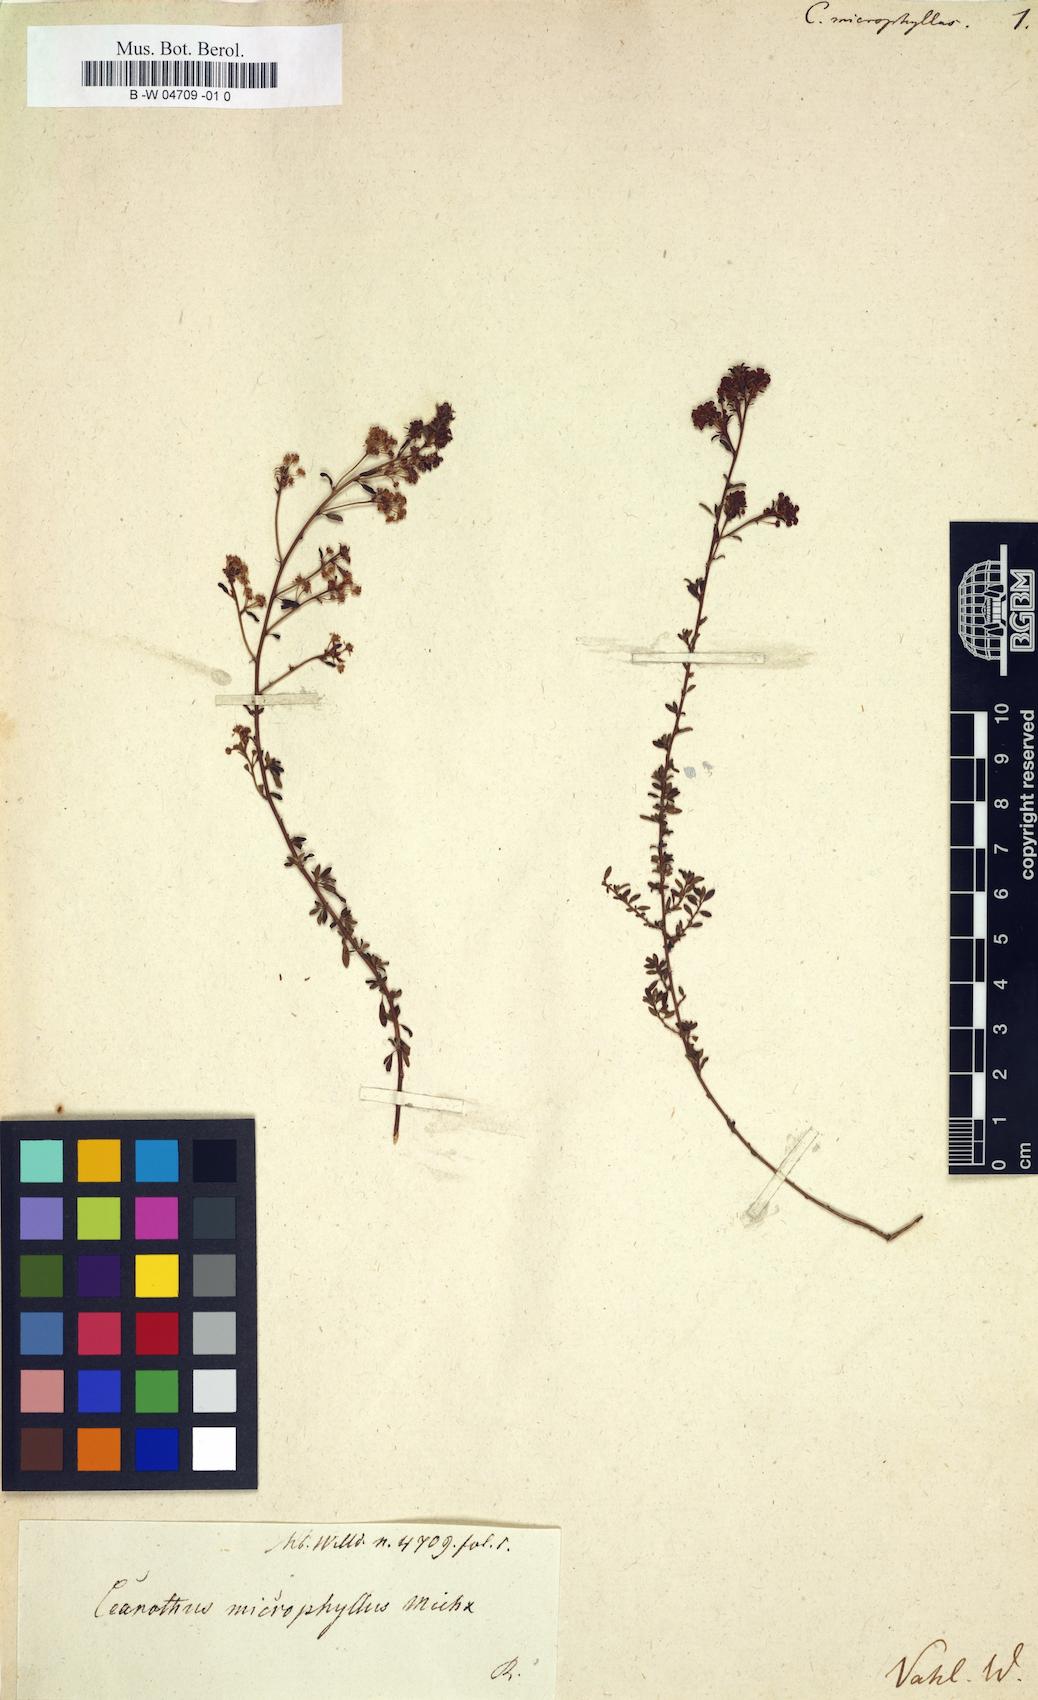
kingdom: Plantae
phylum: Tracheophyta
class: Magnoliopsida
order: Rosales
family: Rhamnaceae
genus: Ceanothus
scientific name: Ceanothus microphyllus
